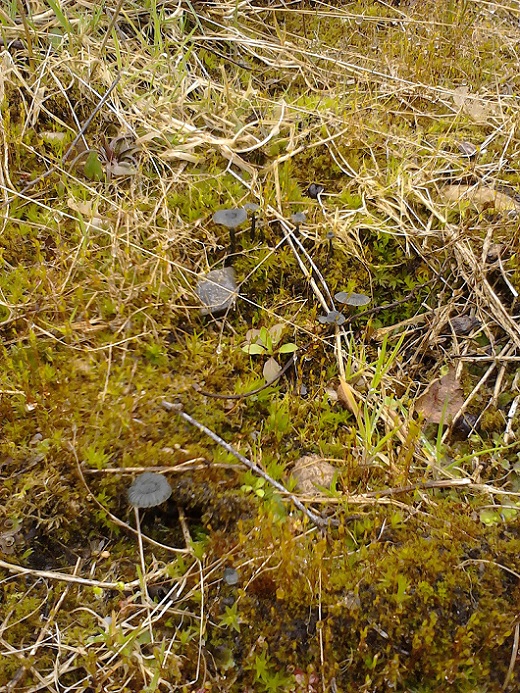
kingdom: Fungi
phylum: Basidiomycota
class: Agaricomycetes
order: Agaricales
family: Hygrophoraceae
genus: Arrhenia
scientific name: Arrhenia chlorocyanea
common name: blågrøn fontænehat
